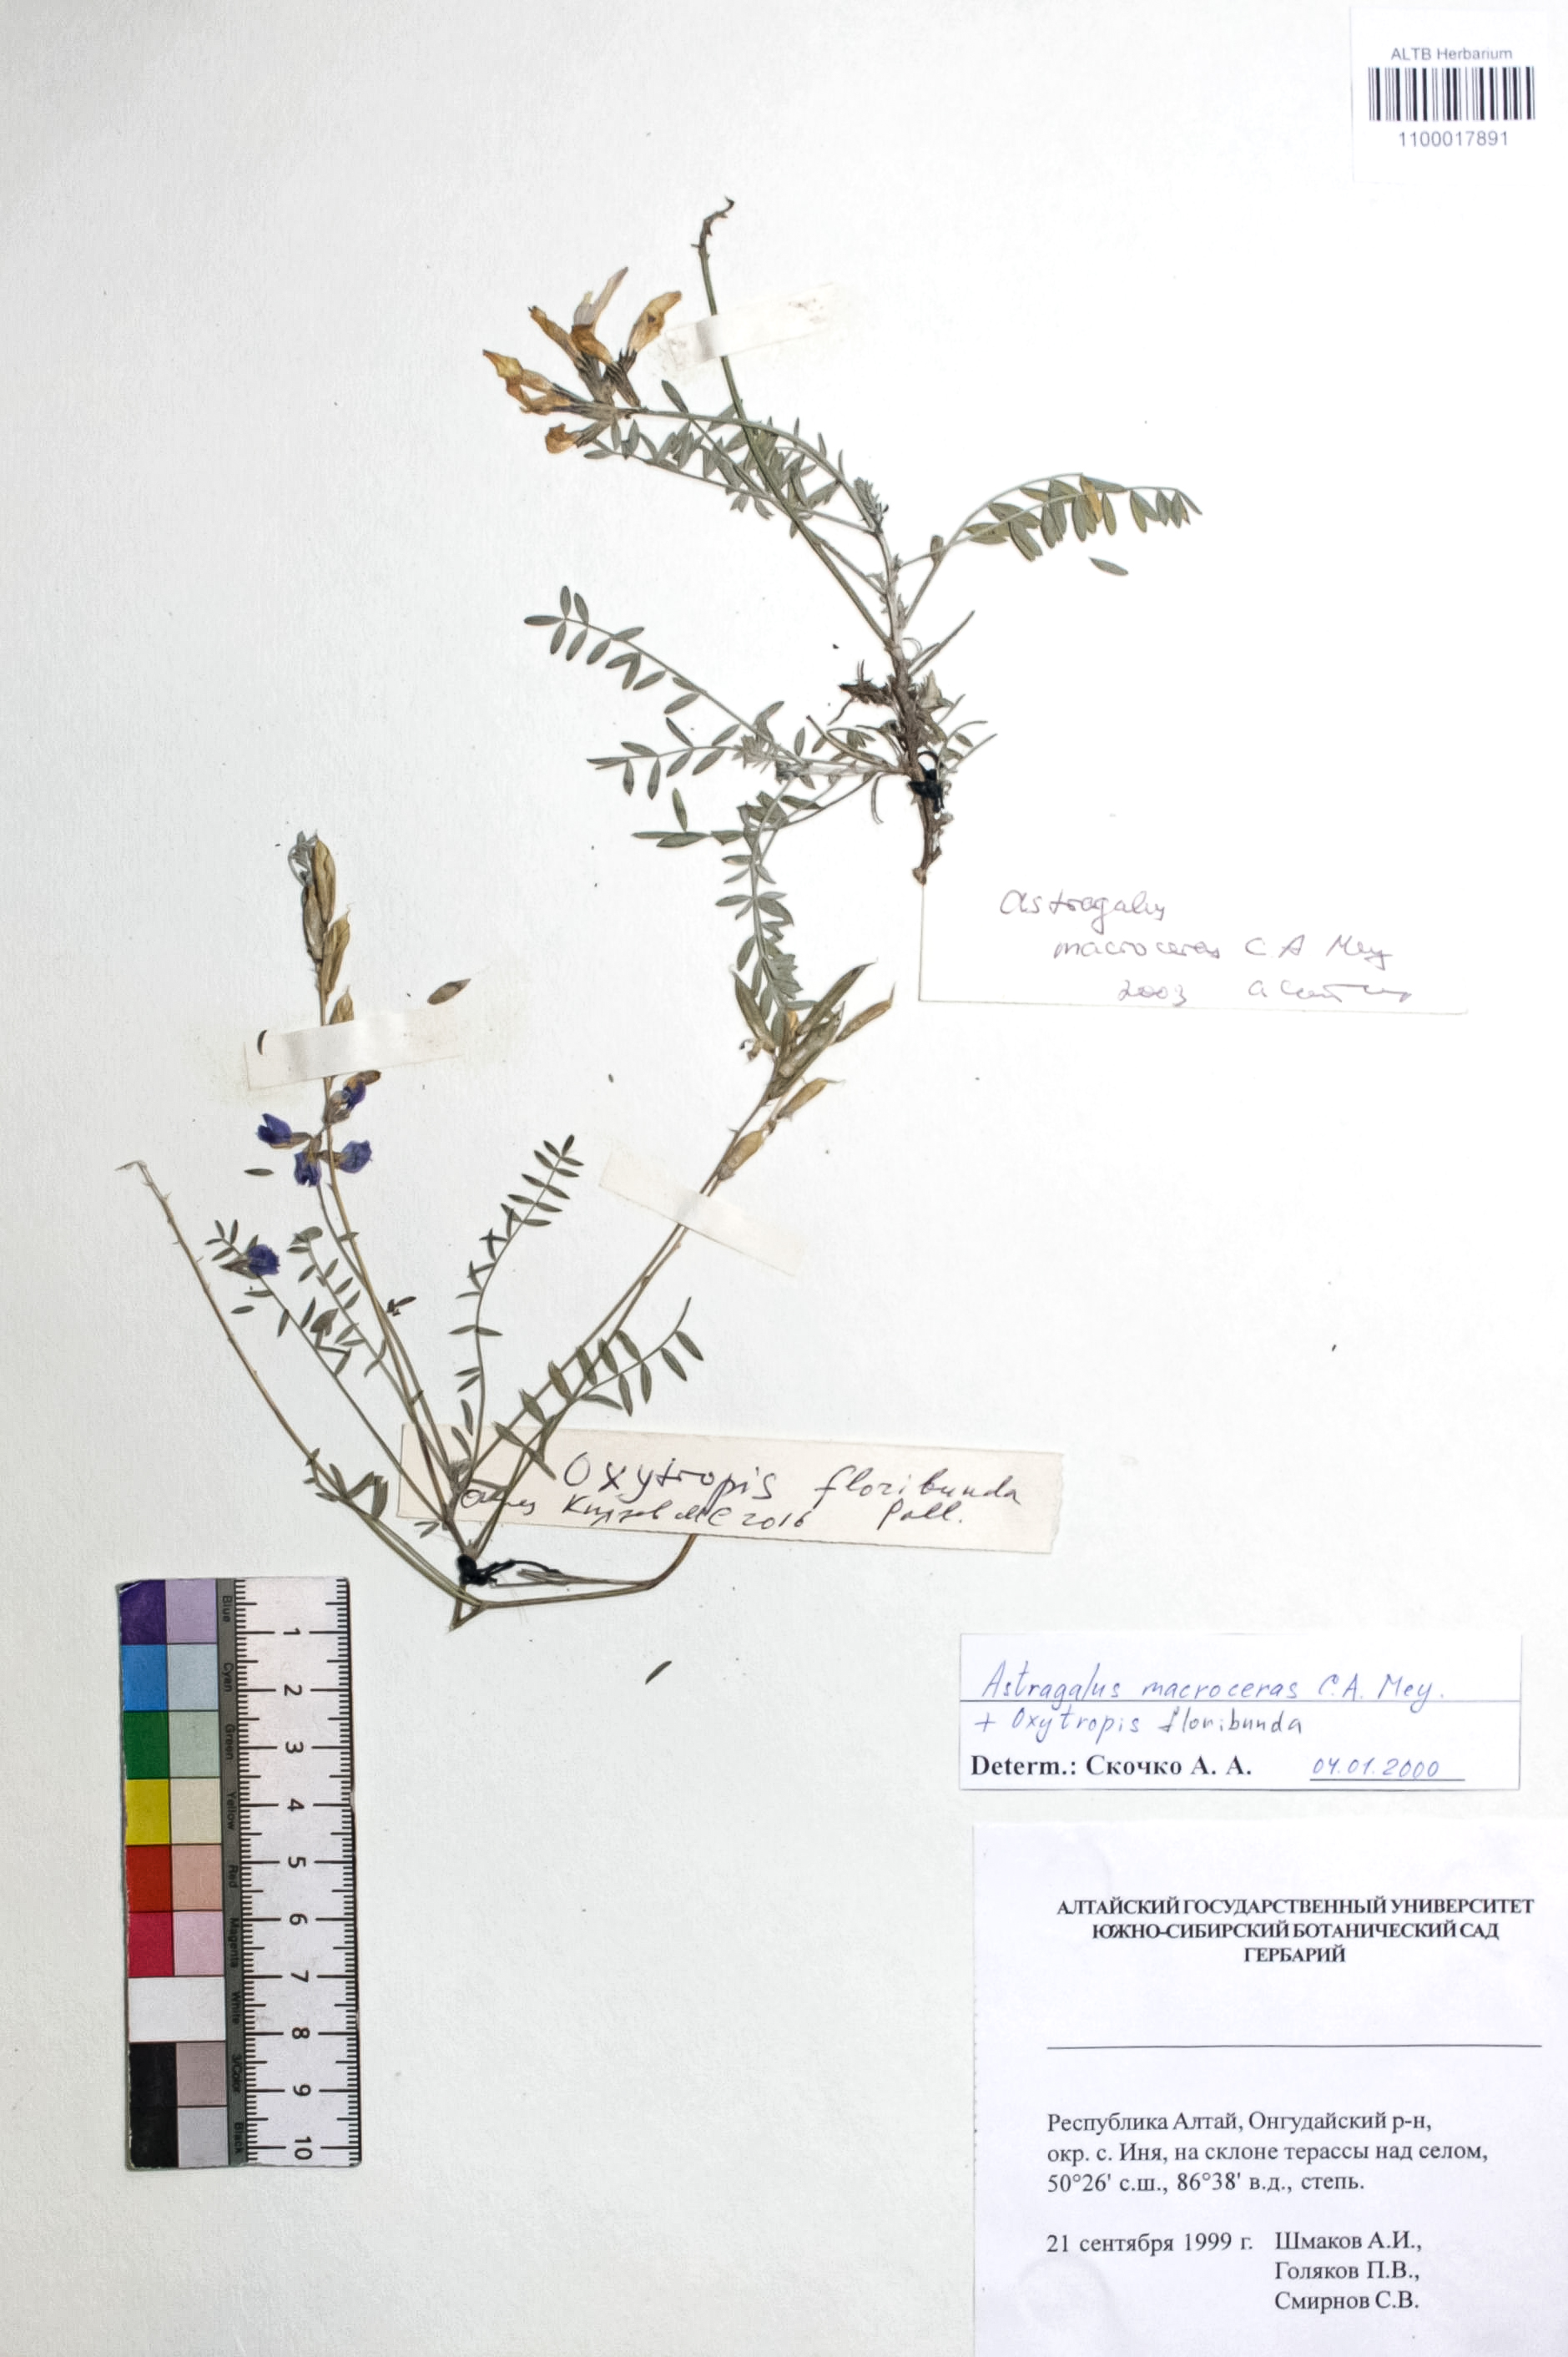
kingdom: Plantae
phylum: Tracheophyta
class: Magnoliopsida
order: Fabales
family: Fabaceae
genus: Astragalus
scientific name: Astragalus macroceras
